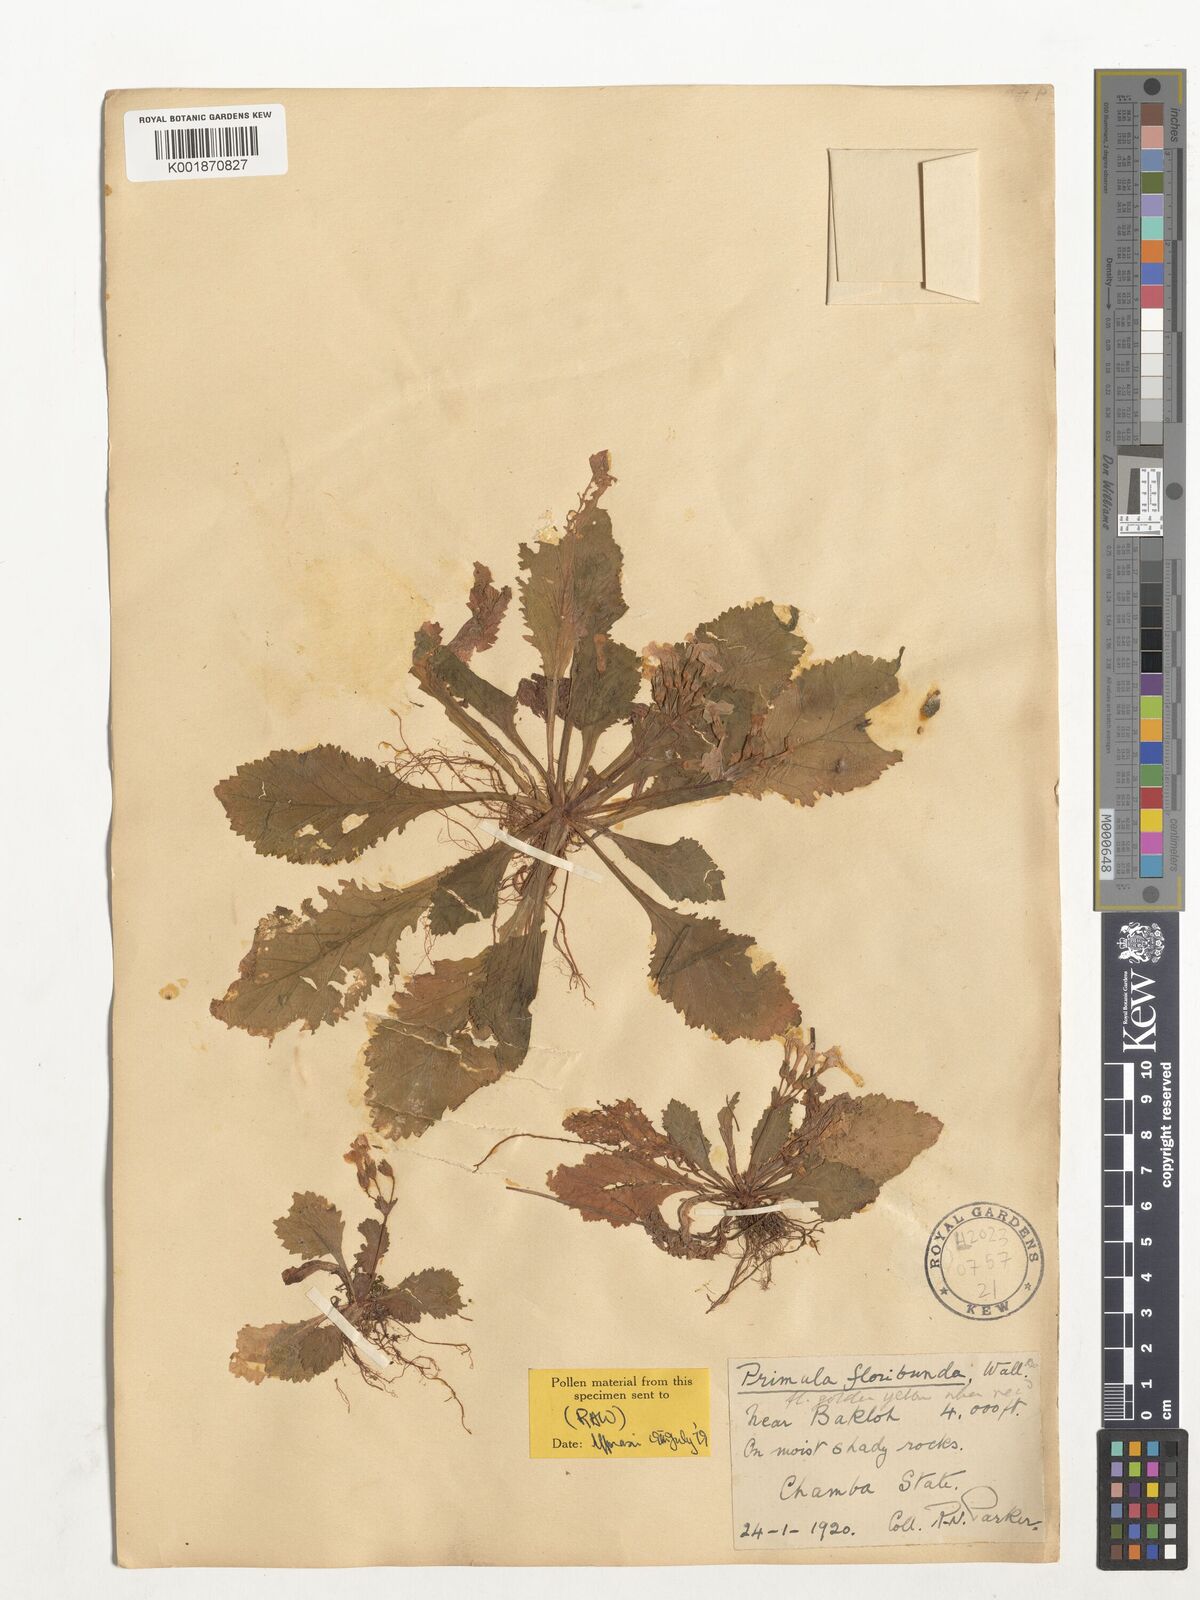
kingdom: Plantae
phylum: Tracheophyta
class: Magnoliopsida
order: Ericales
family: Primulaceae
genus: Evotrochis
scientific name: Evotrochis floribunda
